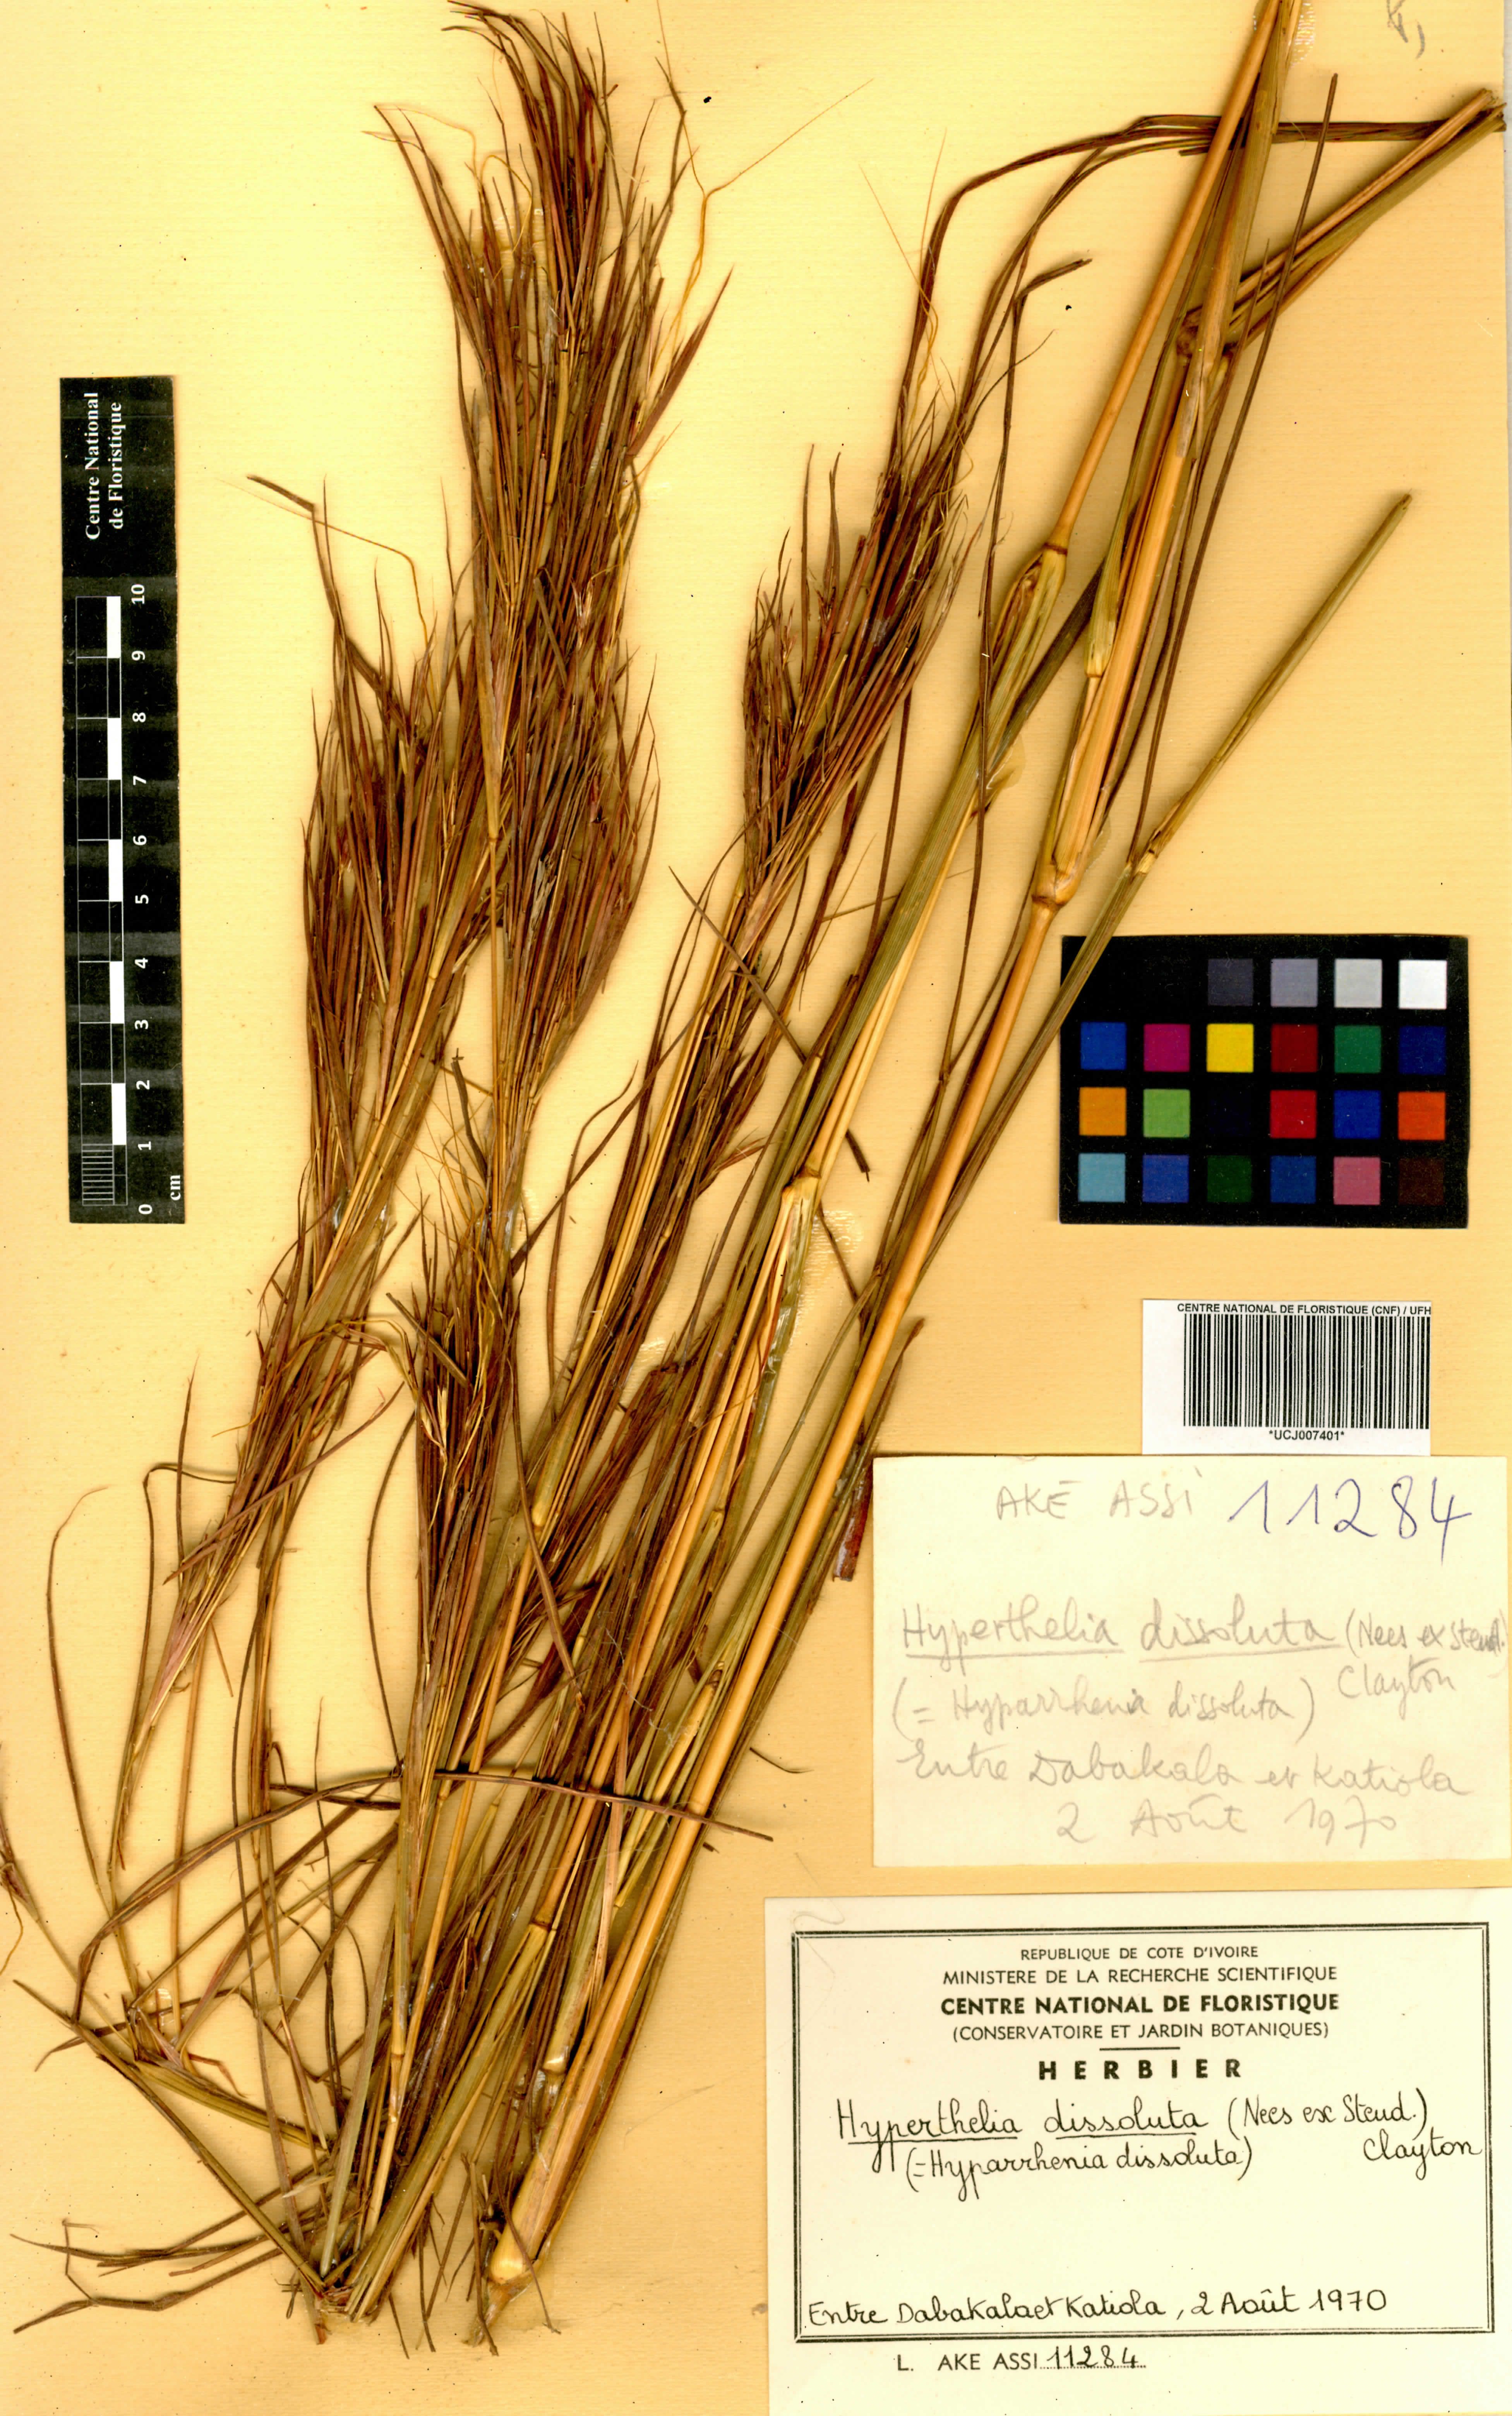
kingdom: Plantae
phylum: Tracheophyta
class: Liliopsida
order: Poales
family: Poaceae
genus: Hyperthelia
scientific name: Hyperthelia dissoluta
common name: Yellow thatching grass
